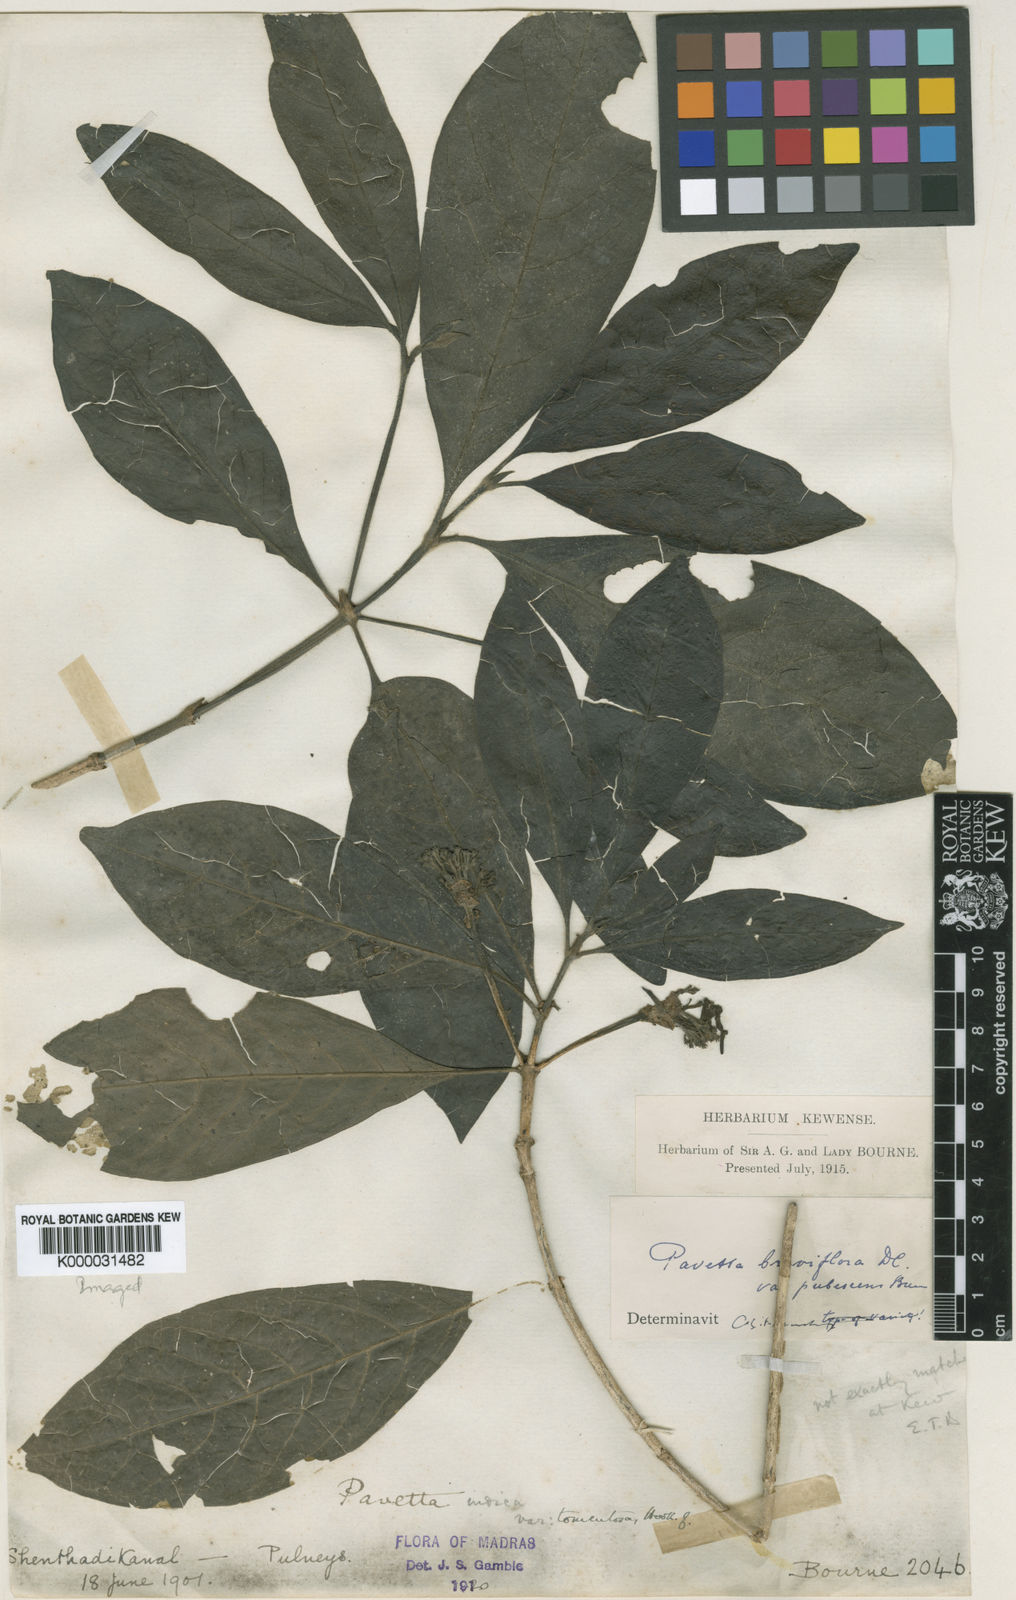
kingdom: Plantae
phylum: Tracheophyta
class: Magnoliopsida
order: Gentianales
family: Rubiaceae
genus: Pavetta
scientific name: Pavetta breviflora
